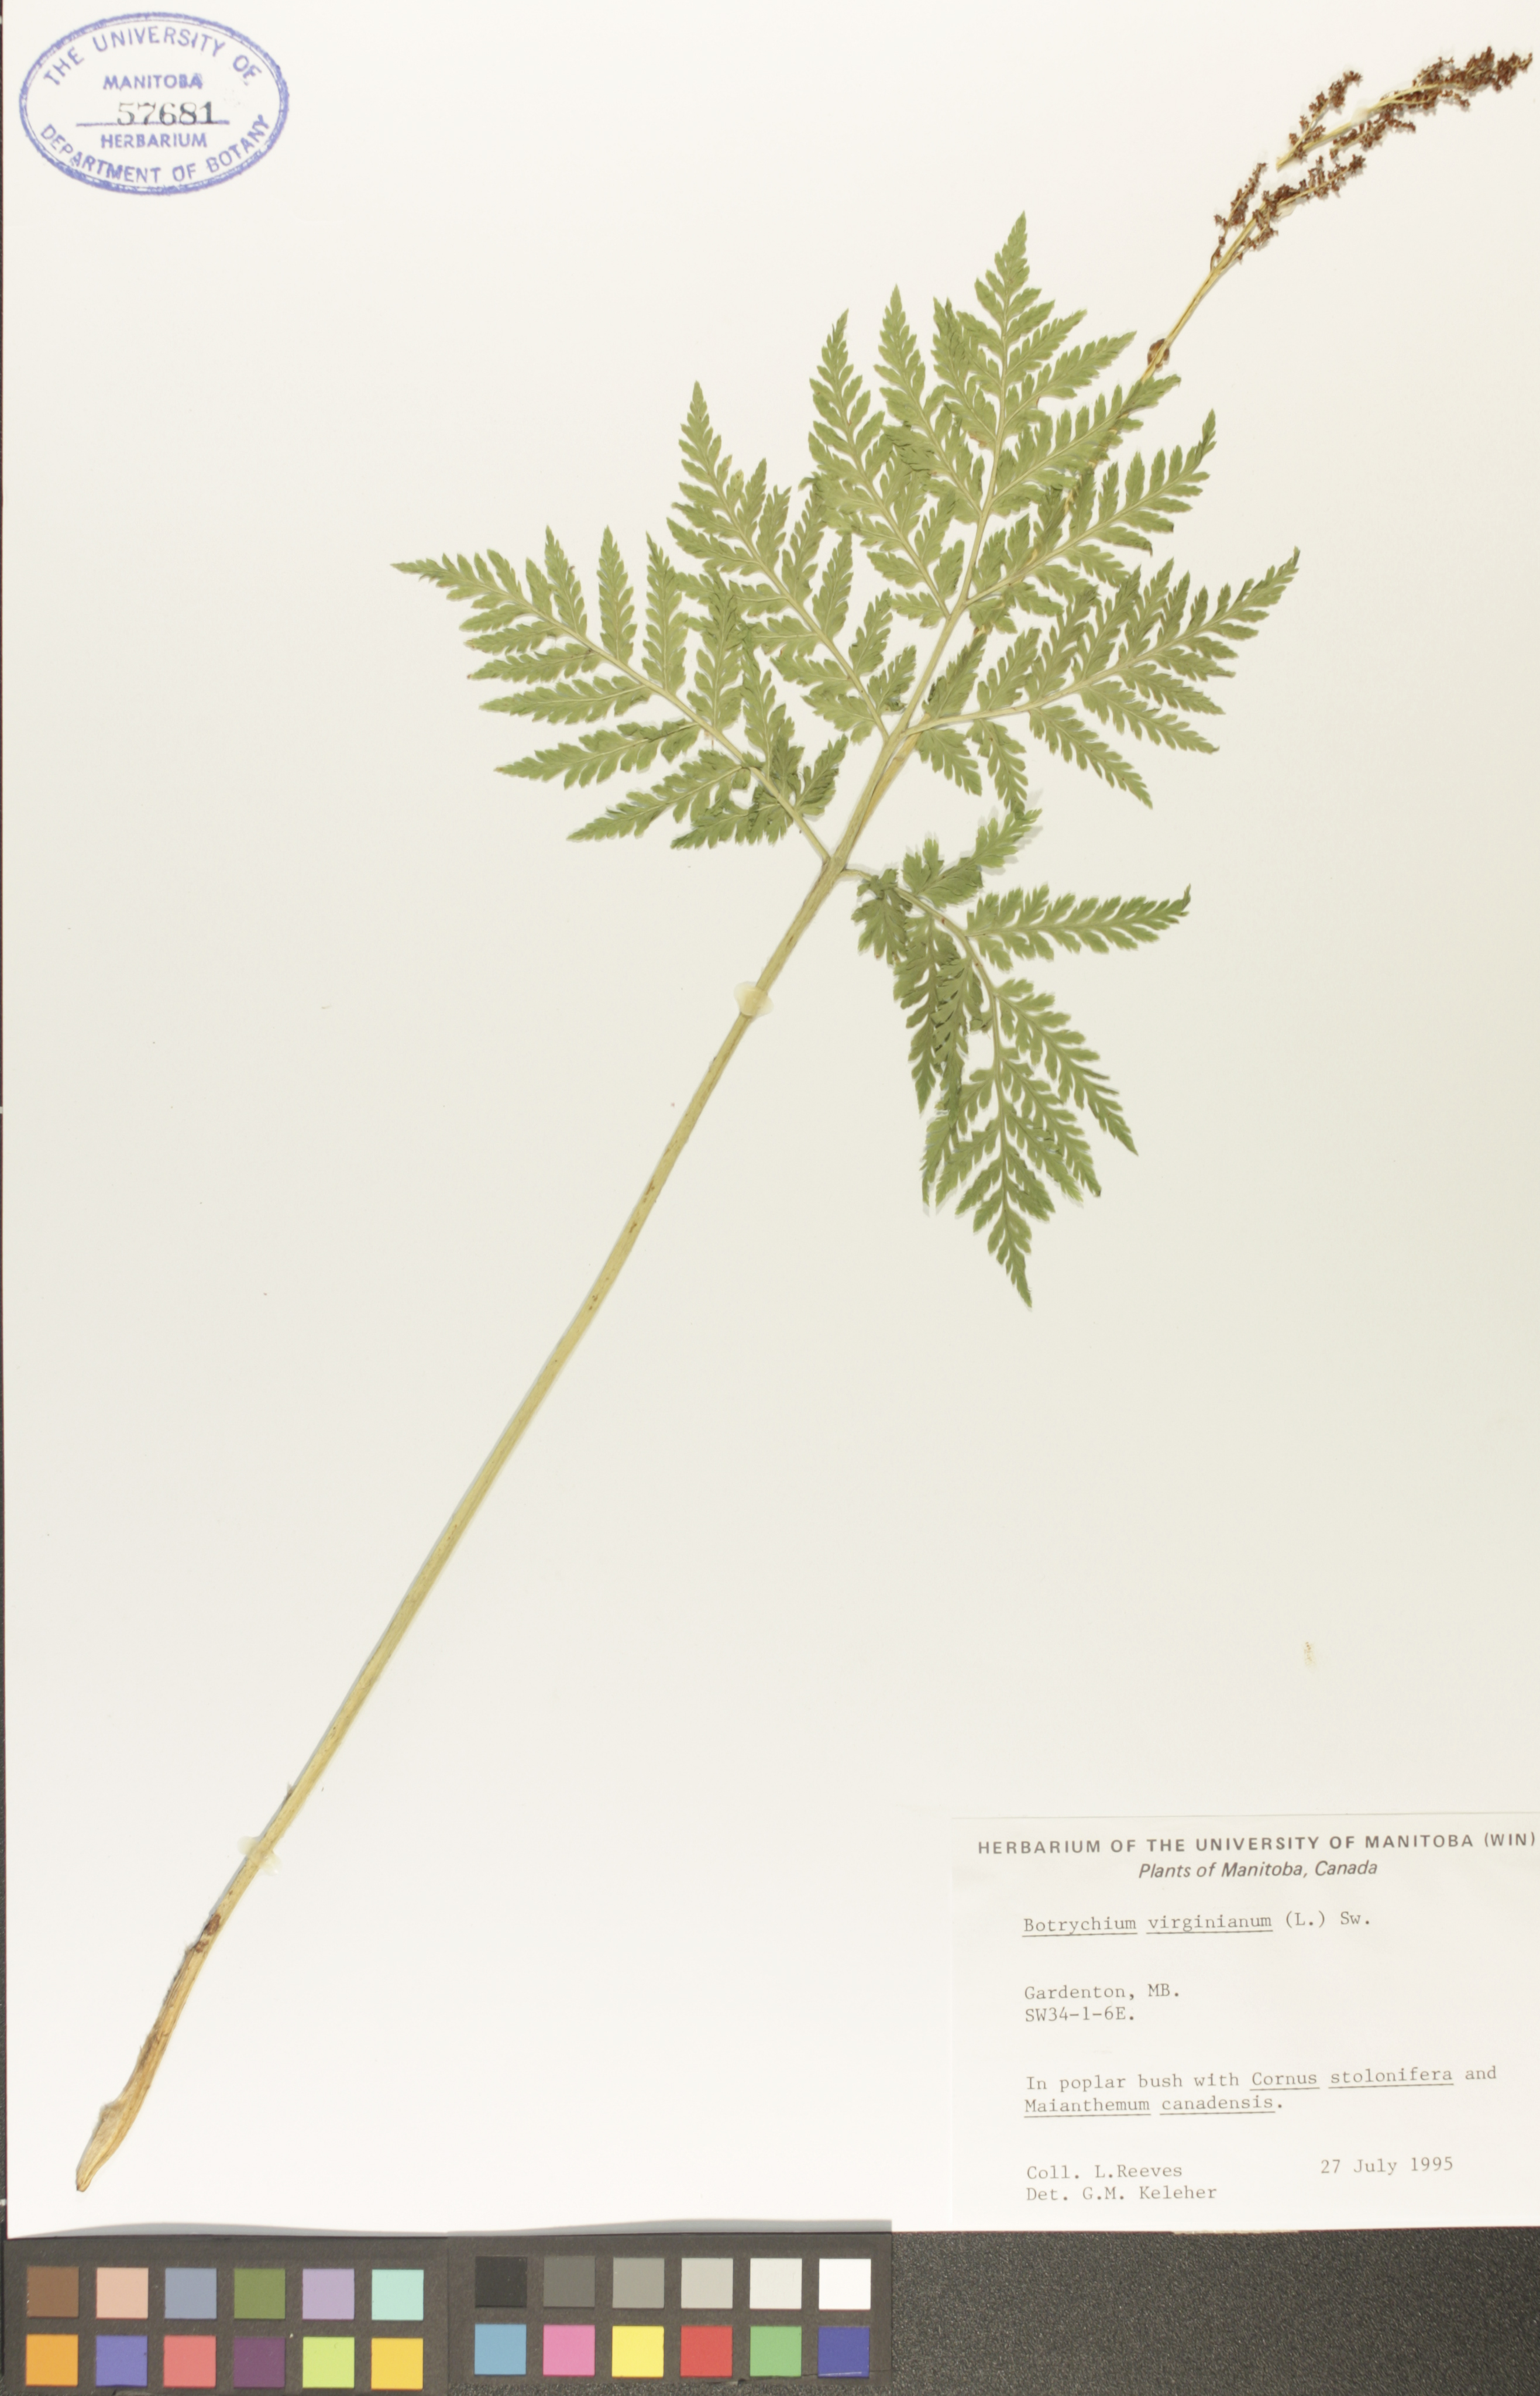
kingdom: Plantae
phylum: Tracheophyta
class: Polypodiopsida
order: Ophioglossales
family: Ophioglossaceae
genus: Botrypus
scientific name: Botrypus virginianus
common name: Common grapefern
